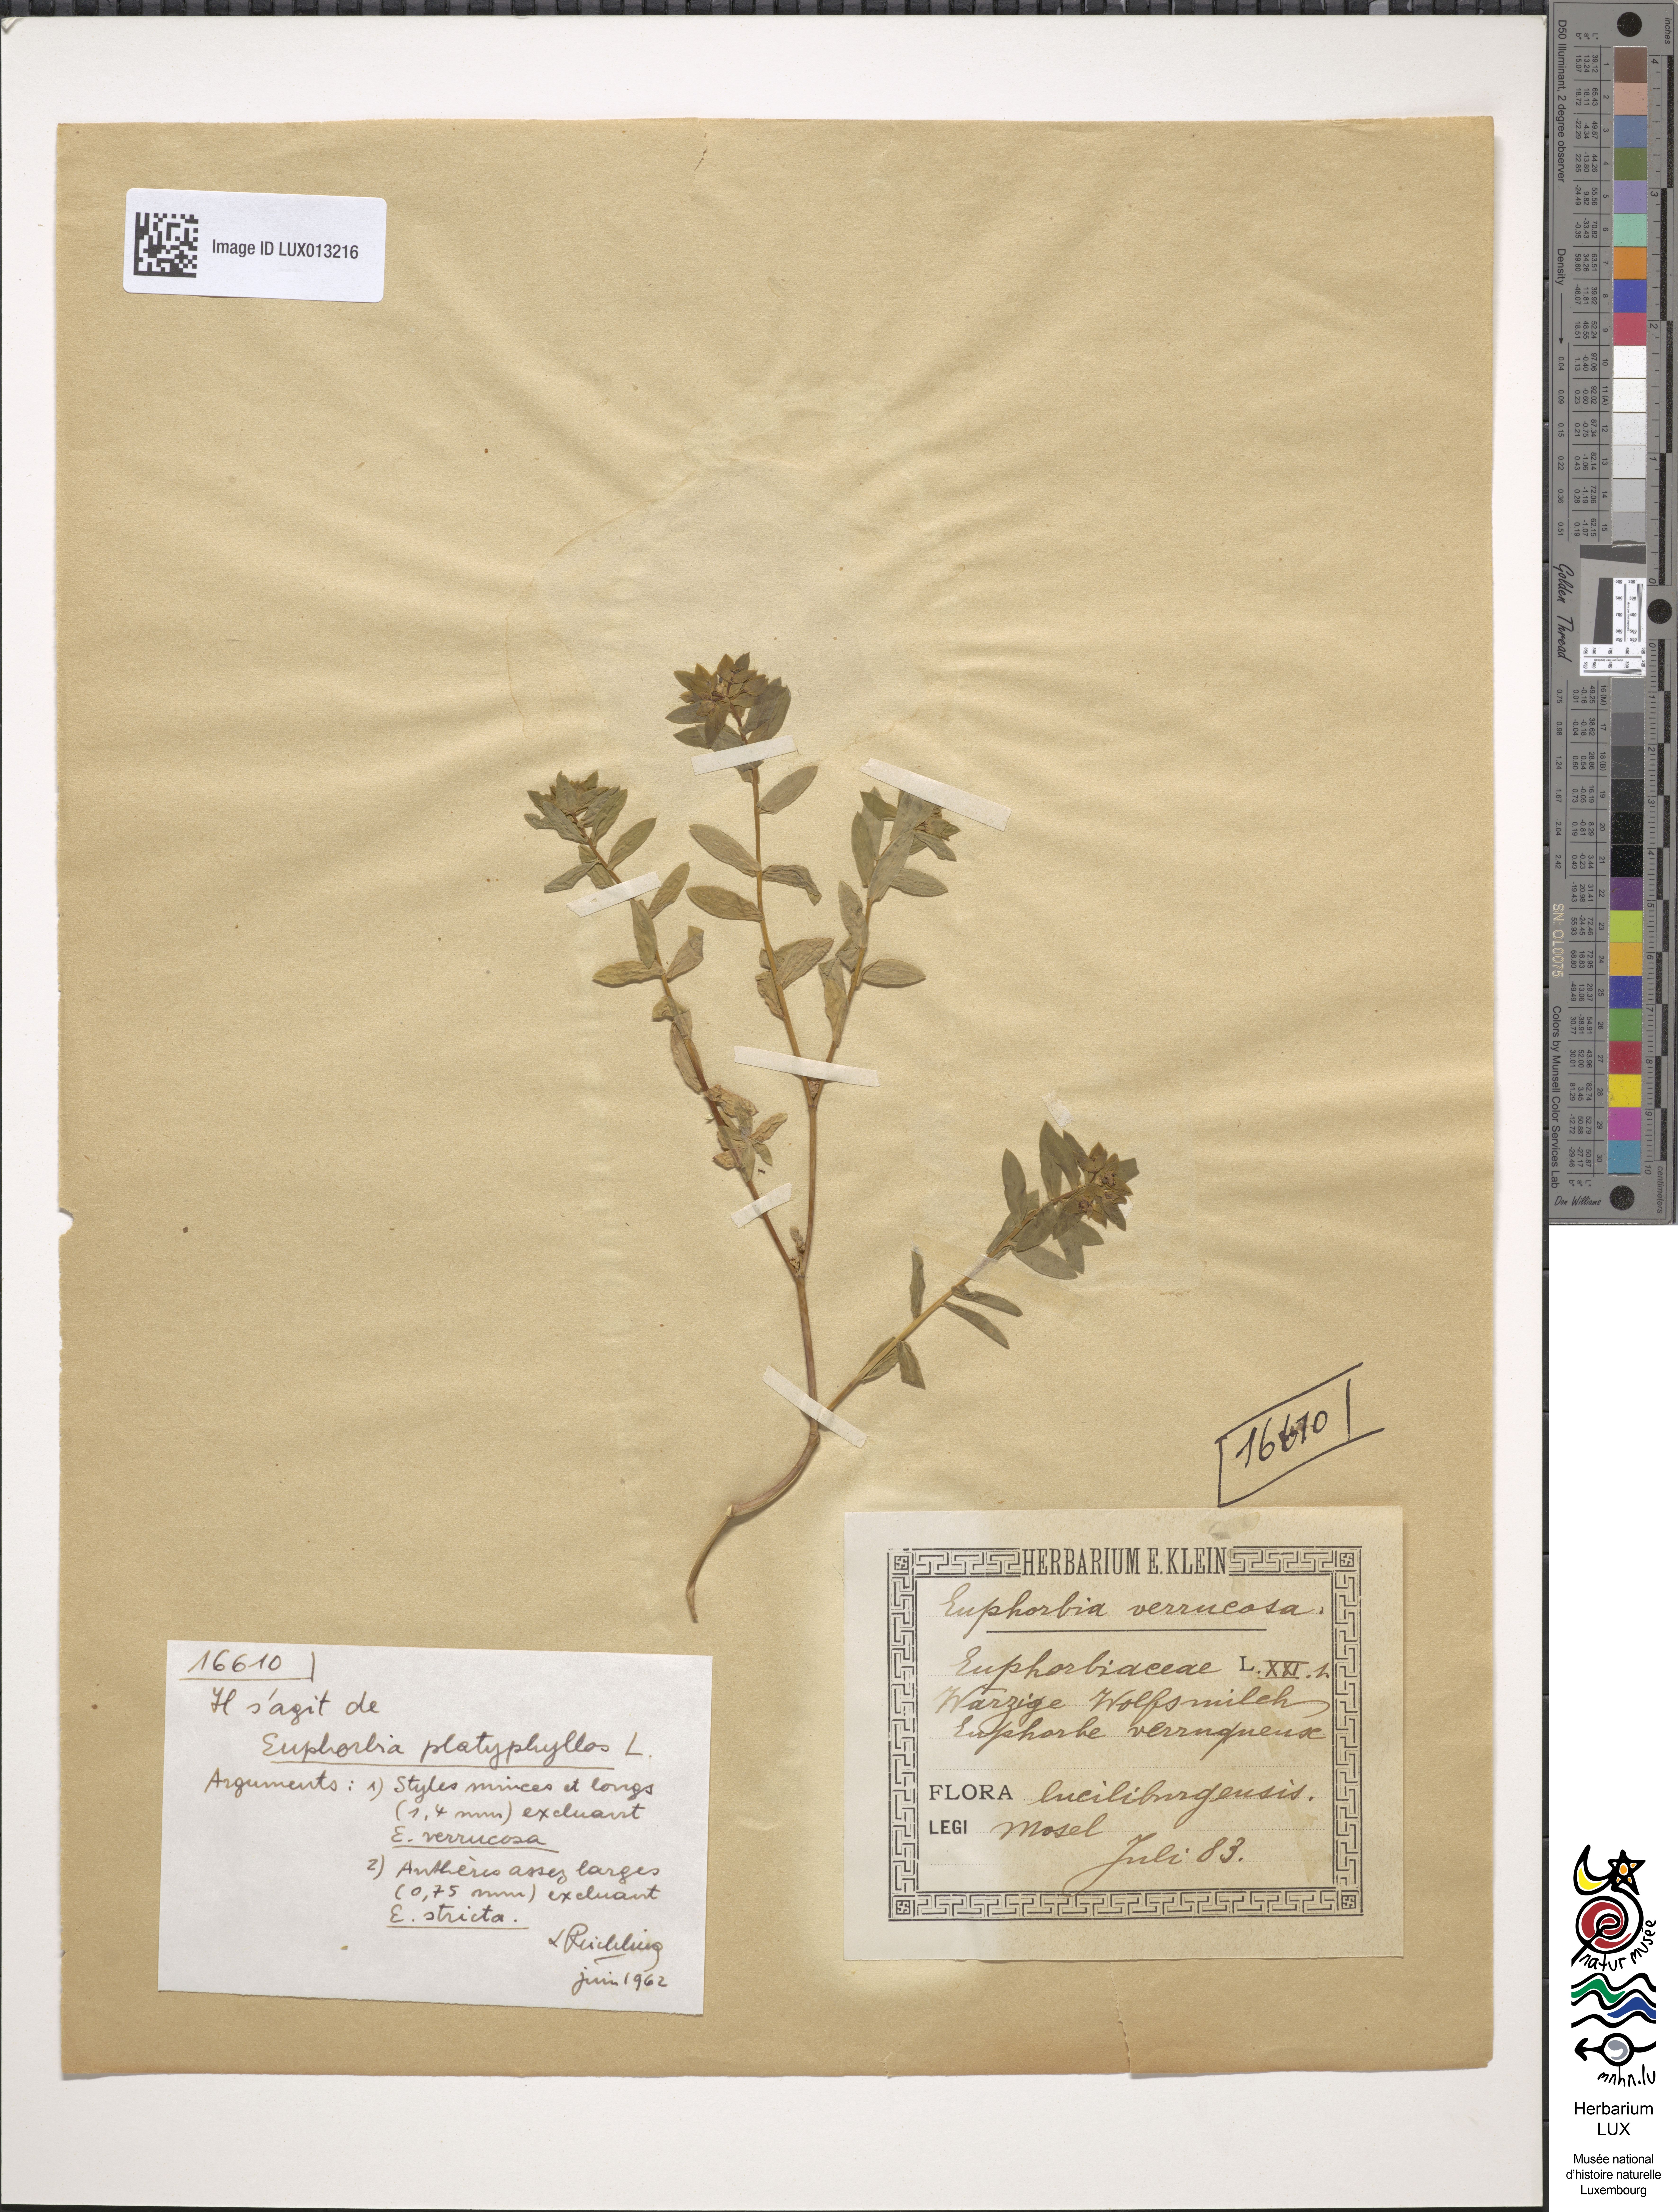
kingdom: Plantae
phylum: Tracheophyta
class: Magnoliopsida
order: Malpighiales
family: Euphorbiaceae
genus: Euphorbia
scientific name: Euphorbia platyphyllos
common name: Broad-leaved spurge
